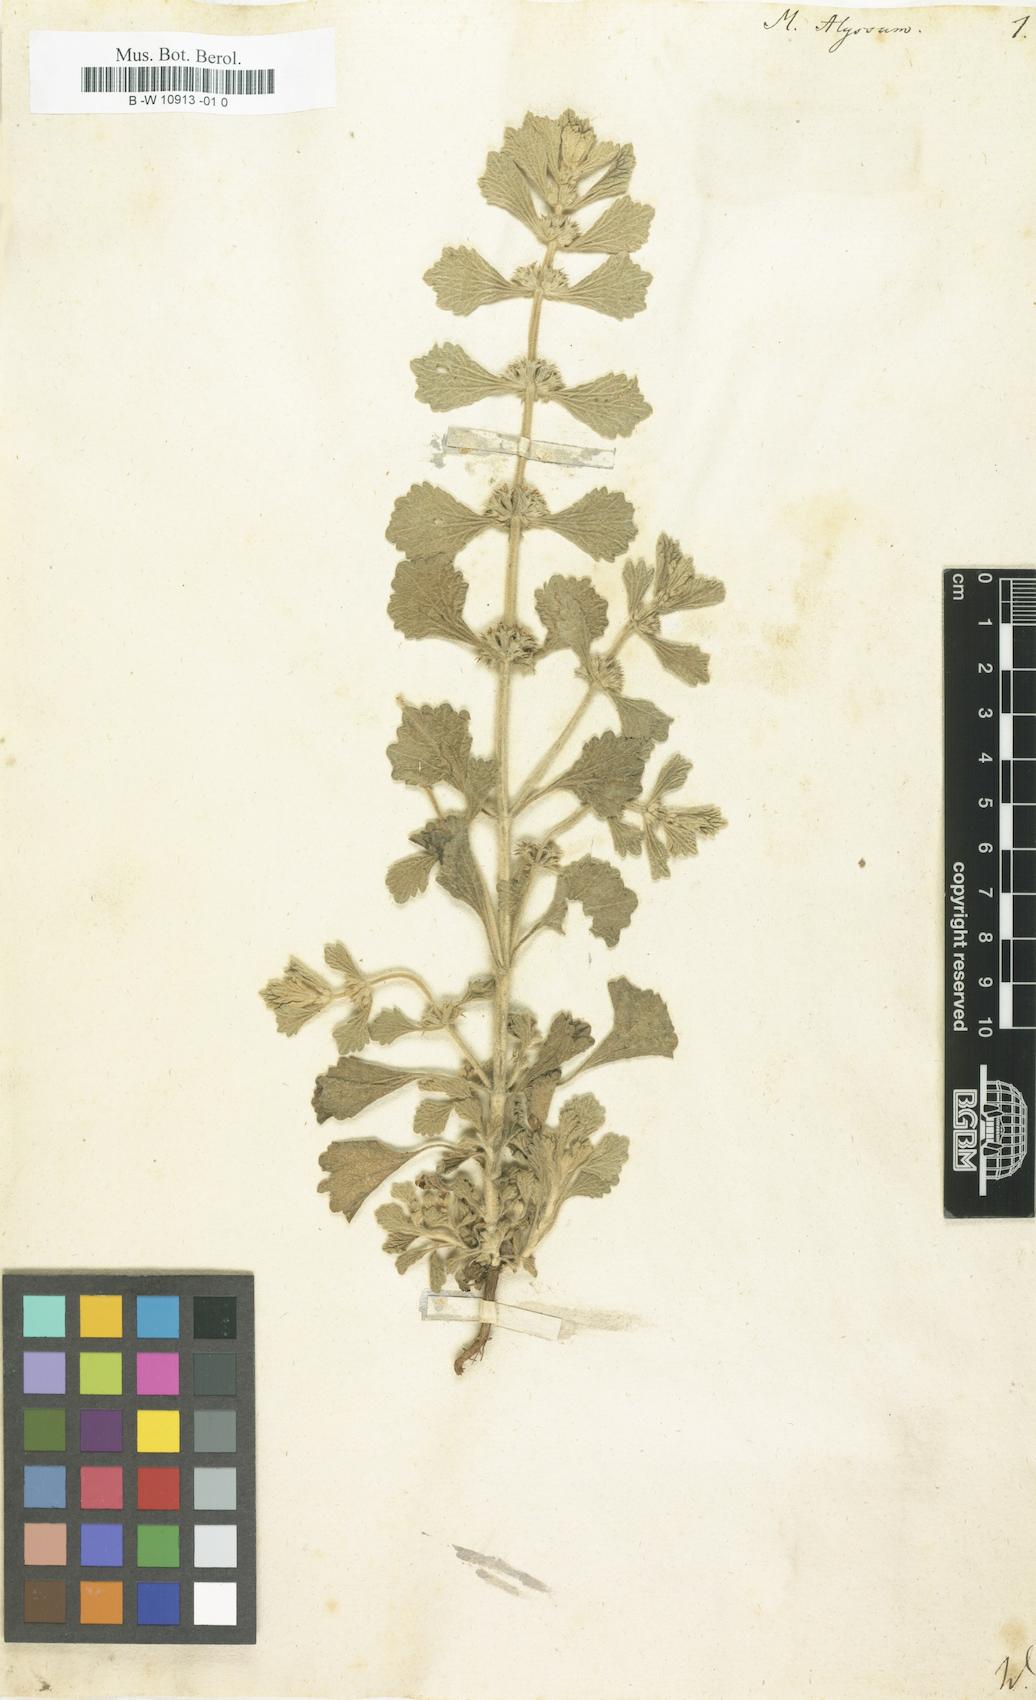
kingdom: Plantae
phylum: Tracheophyta
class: Magnoliopsida
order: Lamiales
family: Lamiaceae
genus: Marrubium
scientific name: Marrubium alysson
